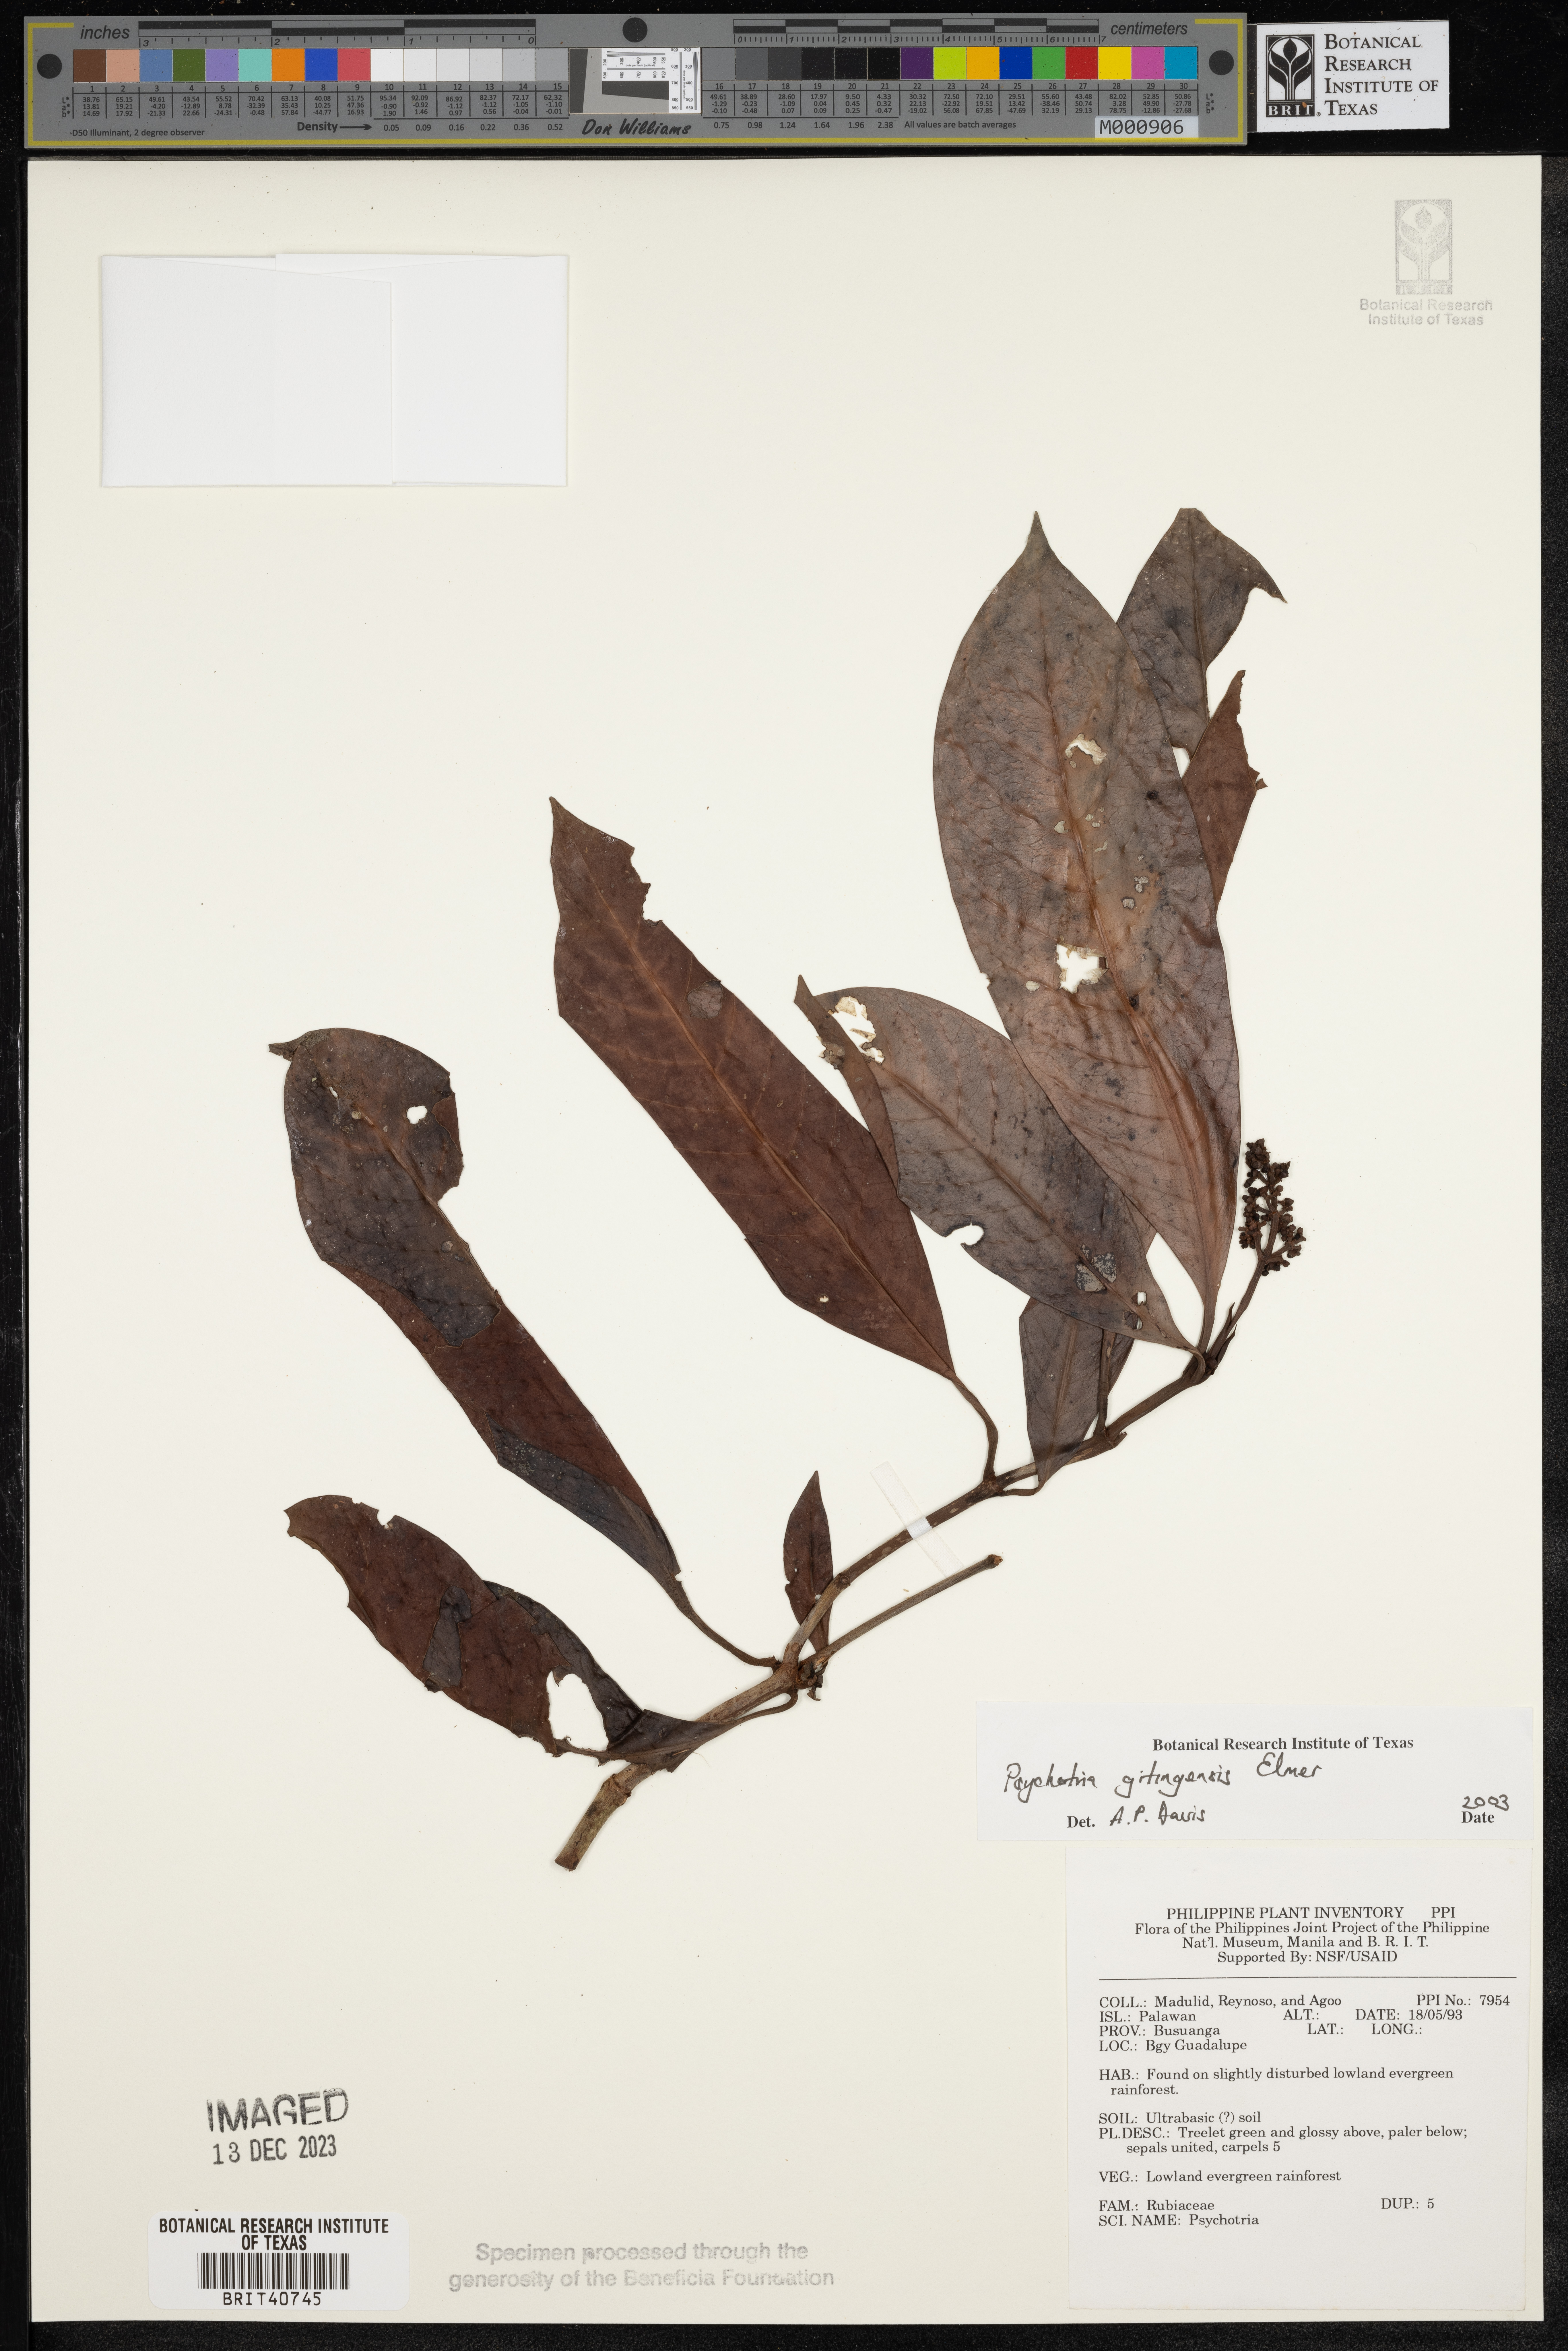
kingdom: Plantae
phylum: Tracheophyta
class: Magnoliopsida
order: Gentianales
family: Rubiaceae
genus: Psychotria
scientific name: Psychotria gitingensis
